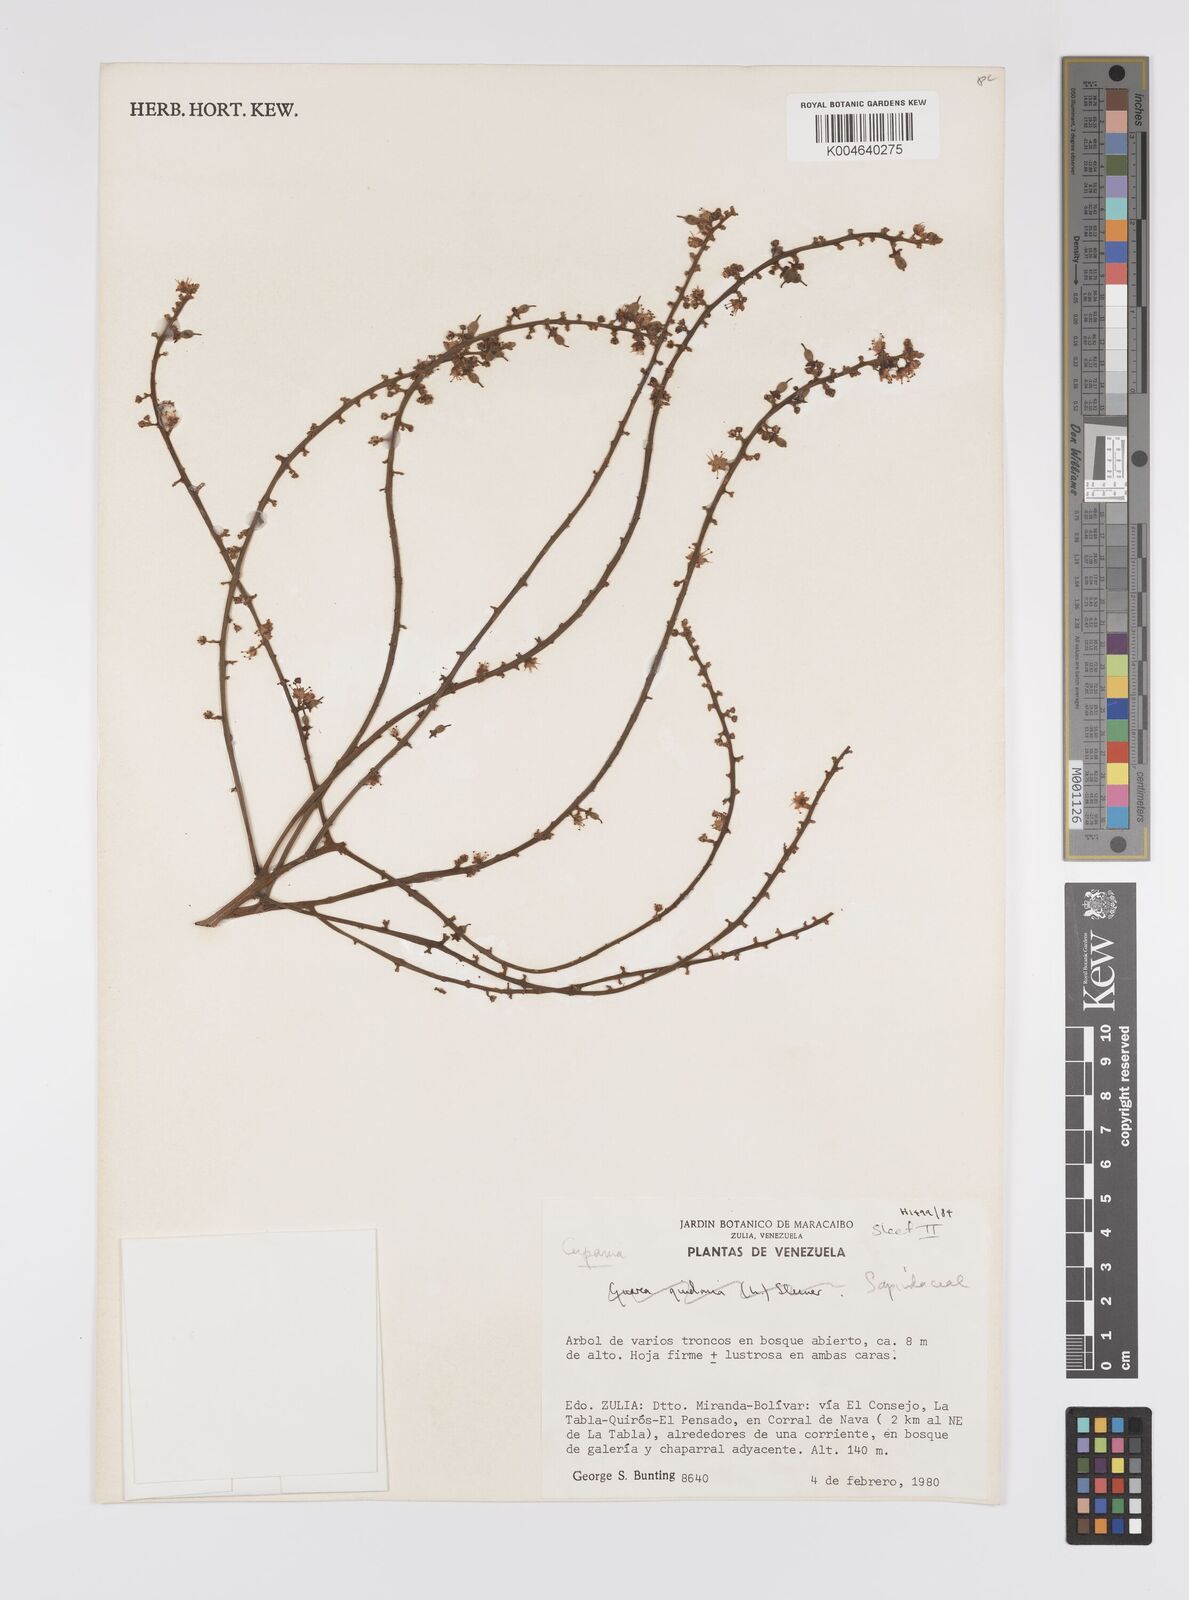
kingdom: Plantae
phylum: Tracheophyta
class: Magnoliopsida
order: Sapindales
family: Sapindaceae
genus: Cupania
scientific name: Cupania
